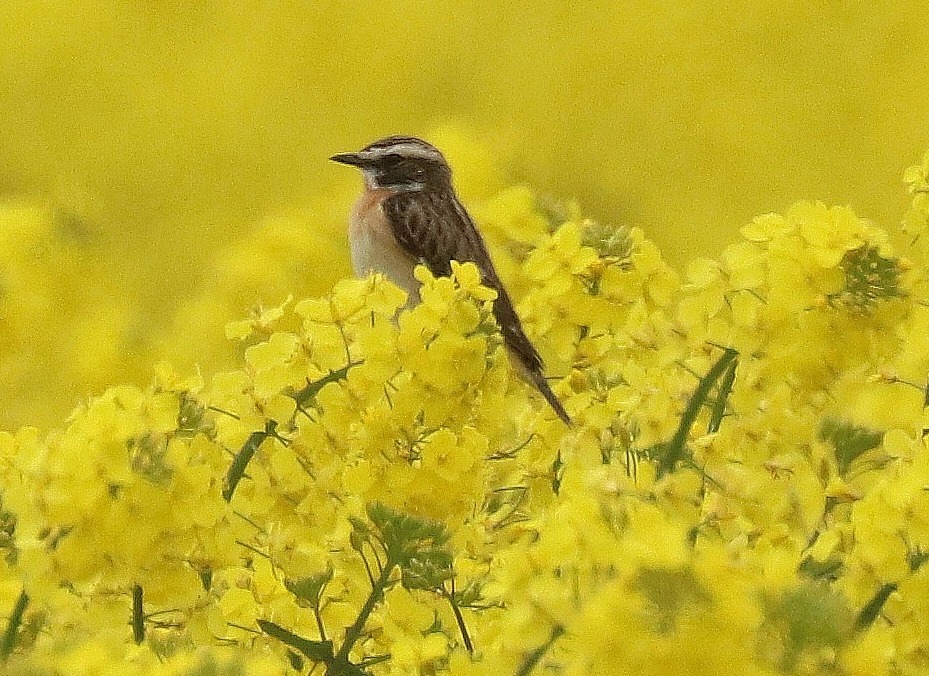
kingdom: Animalia
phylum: Chordata
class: Aves
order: Passeriformes
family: Muscicapidae
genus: Saxicola
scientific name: Saxicola rubetra
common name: Bynkefugl
